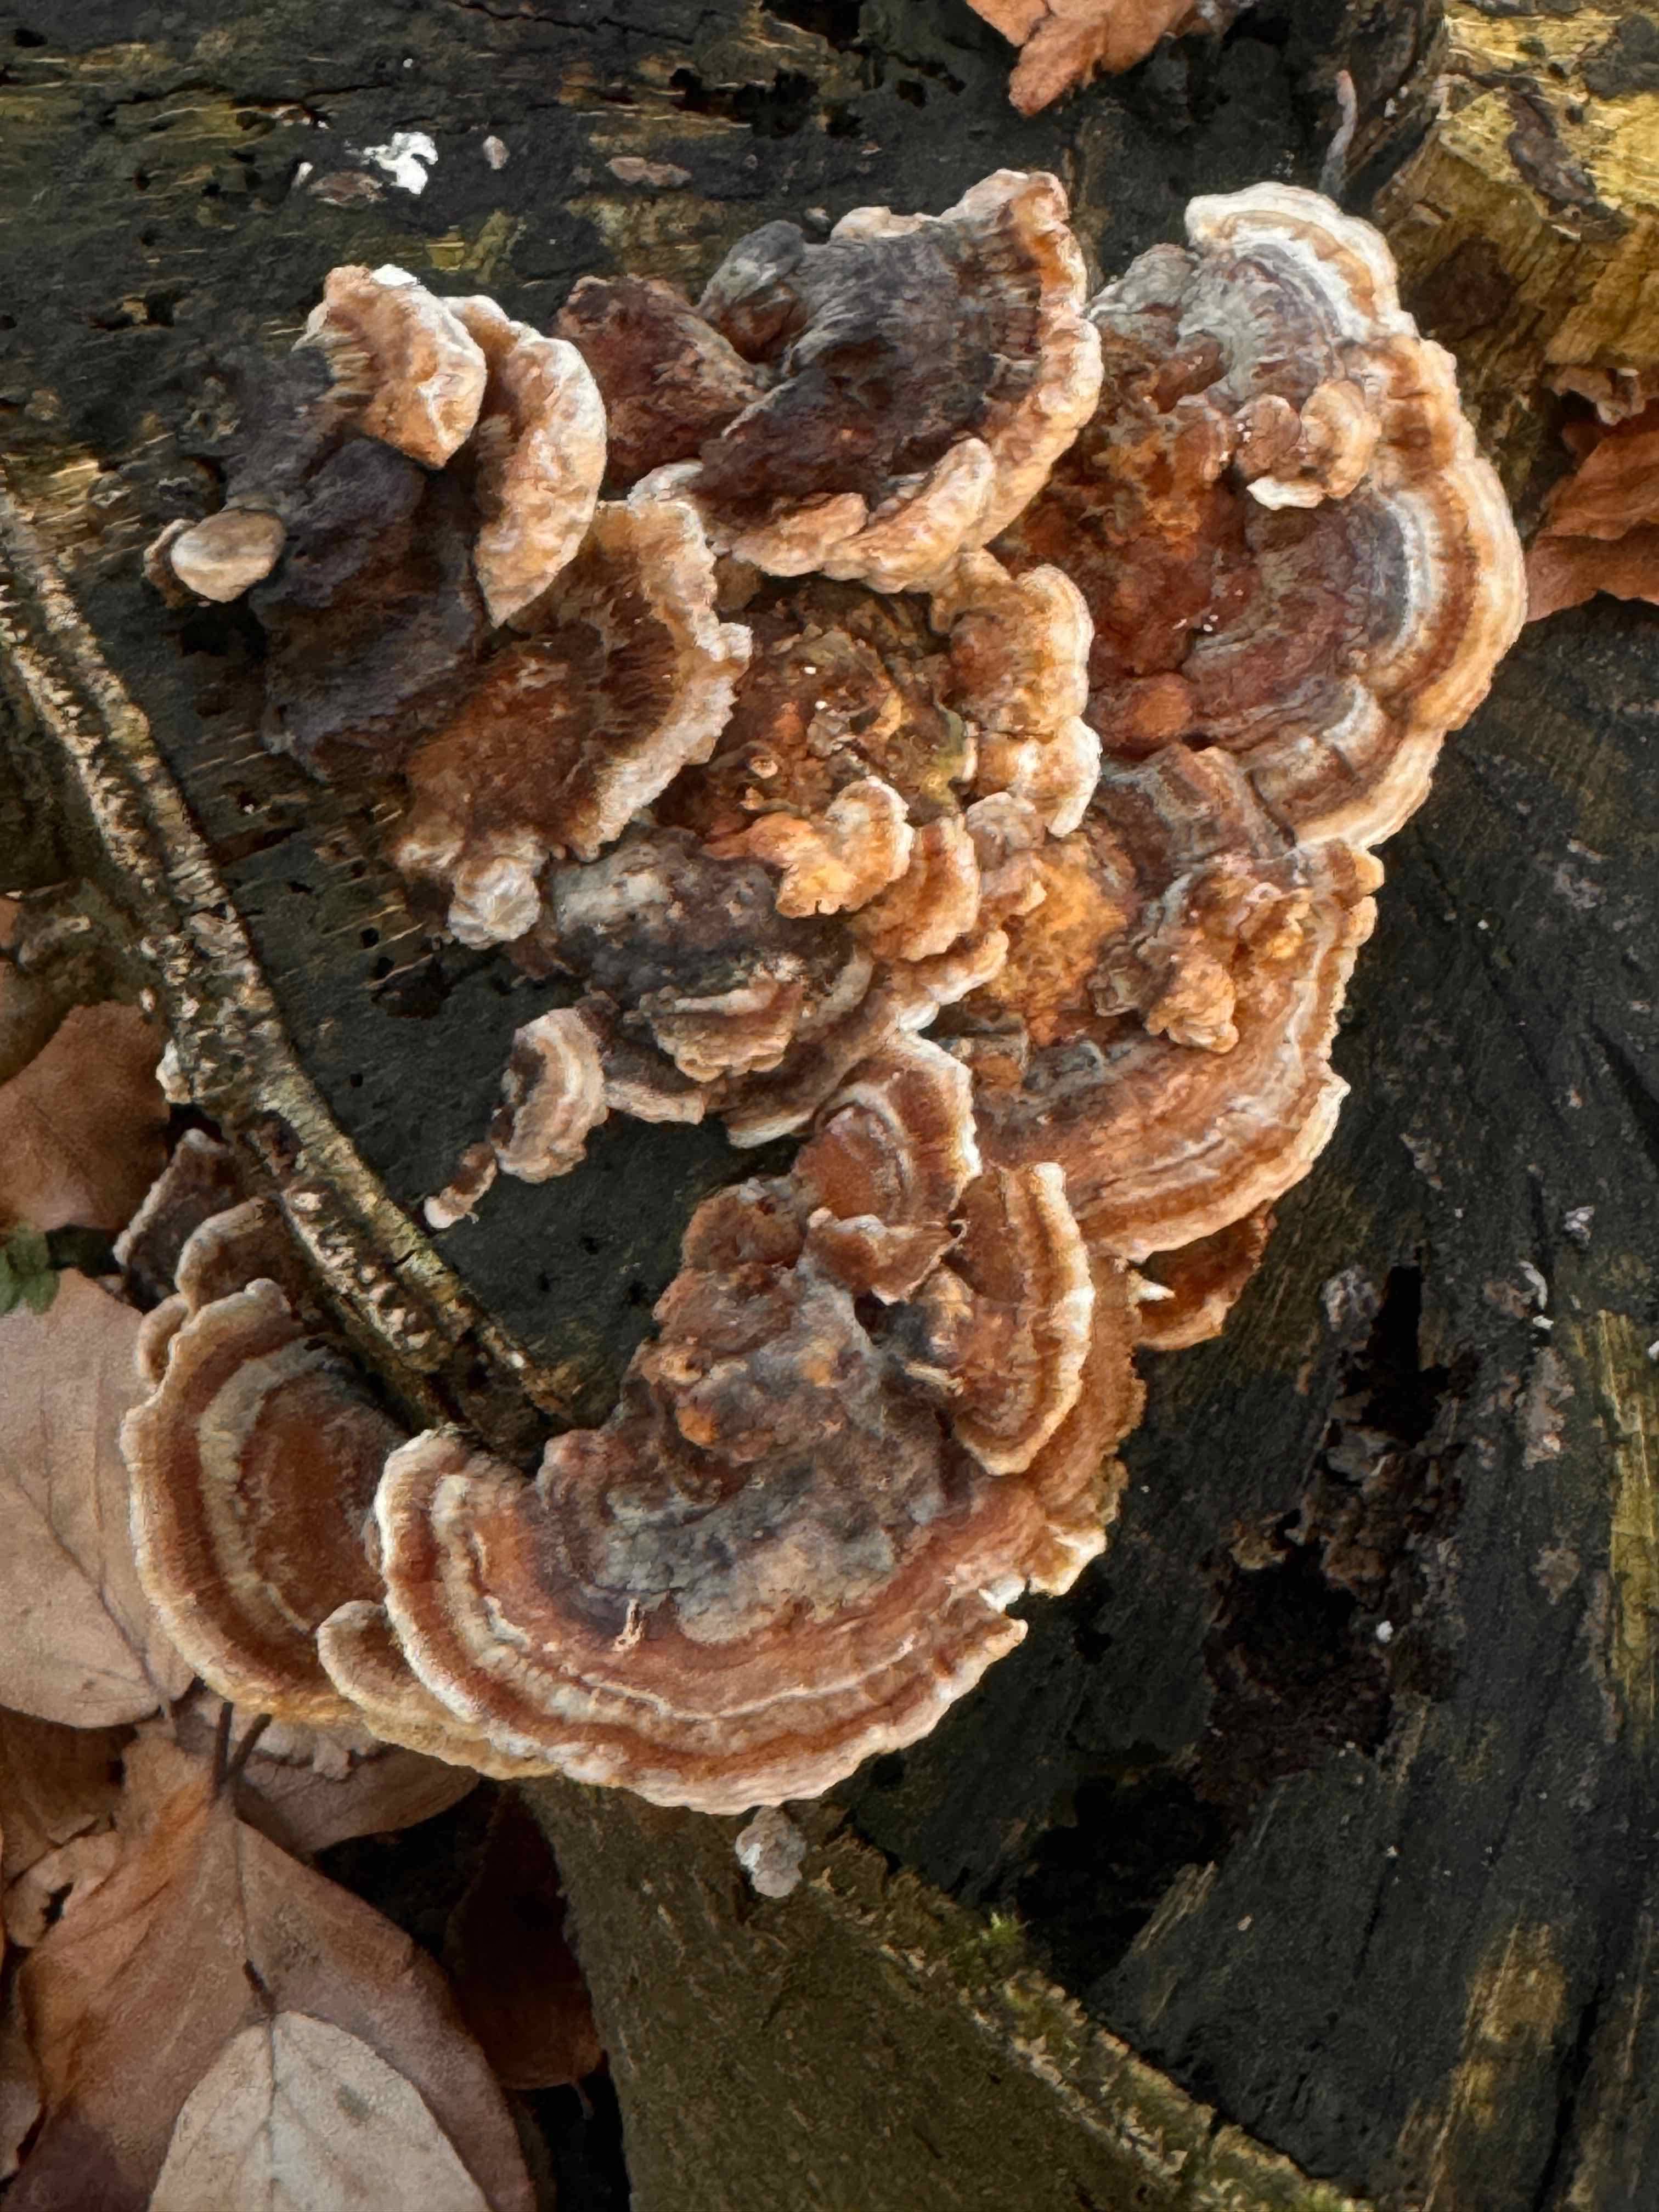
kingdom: Fungi
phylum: Basidiomycota
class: Agaricomycetes
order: Polyporales
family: Polyporaceae
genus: Trametes
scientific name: Trametes ochracea
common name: bæltet læderporesvamp
